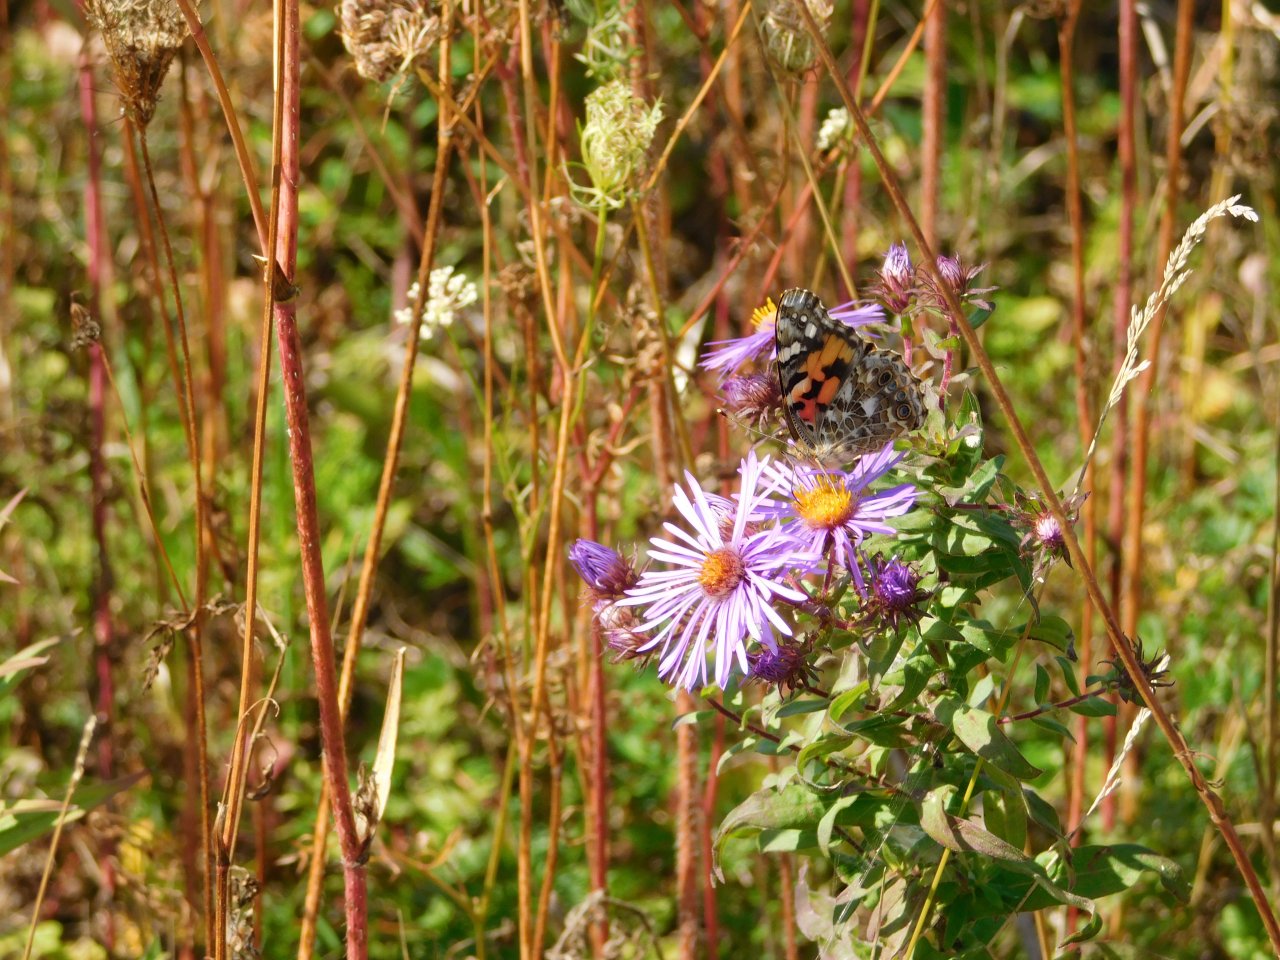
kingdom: Animalia
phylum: Arthropoda
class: Insecta
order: Lepidoptera
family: Nymphalidae
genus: Vanessa
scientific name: Vanessa cardui
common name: Painted Lady
